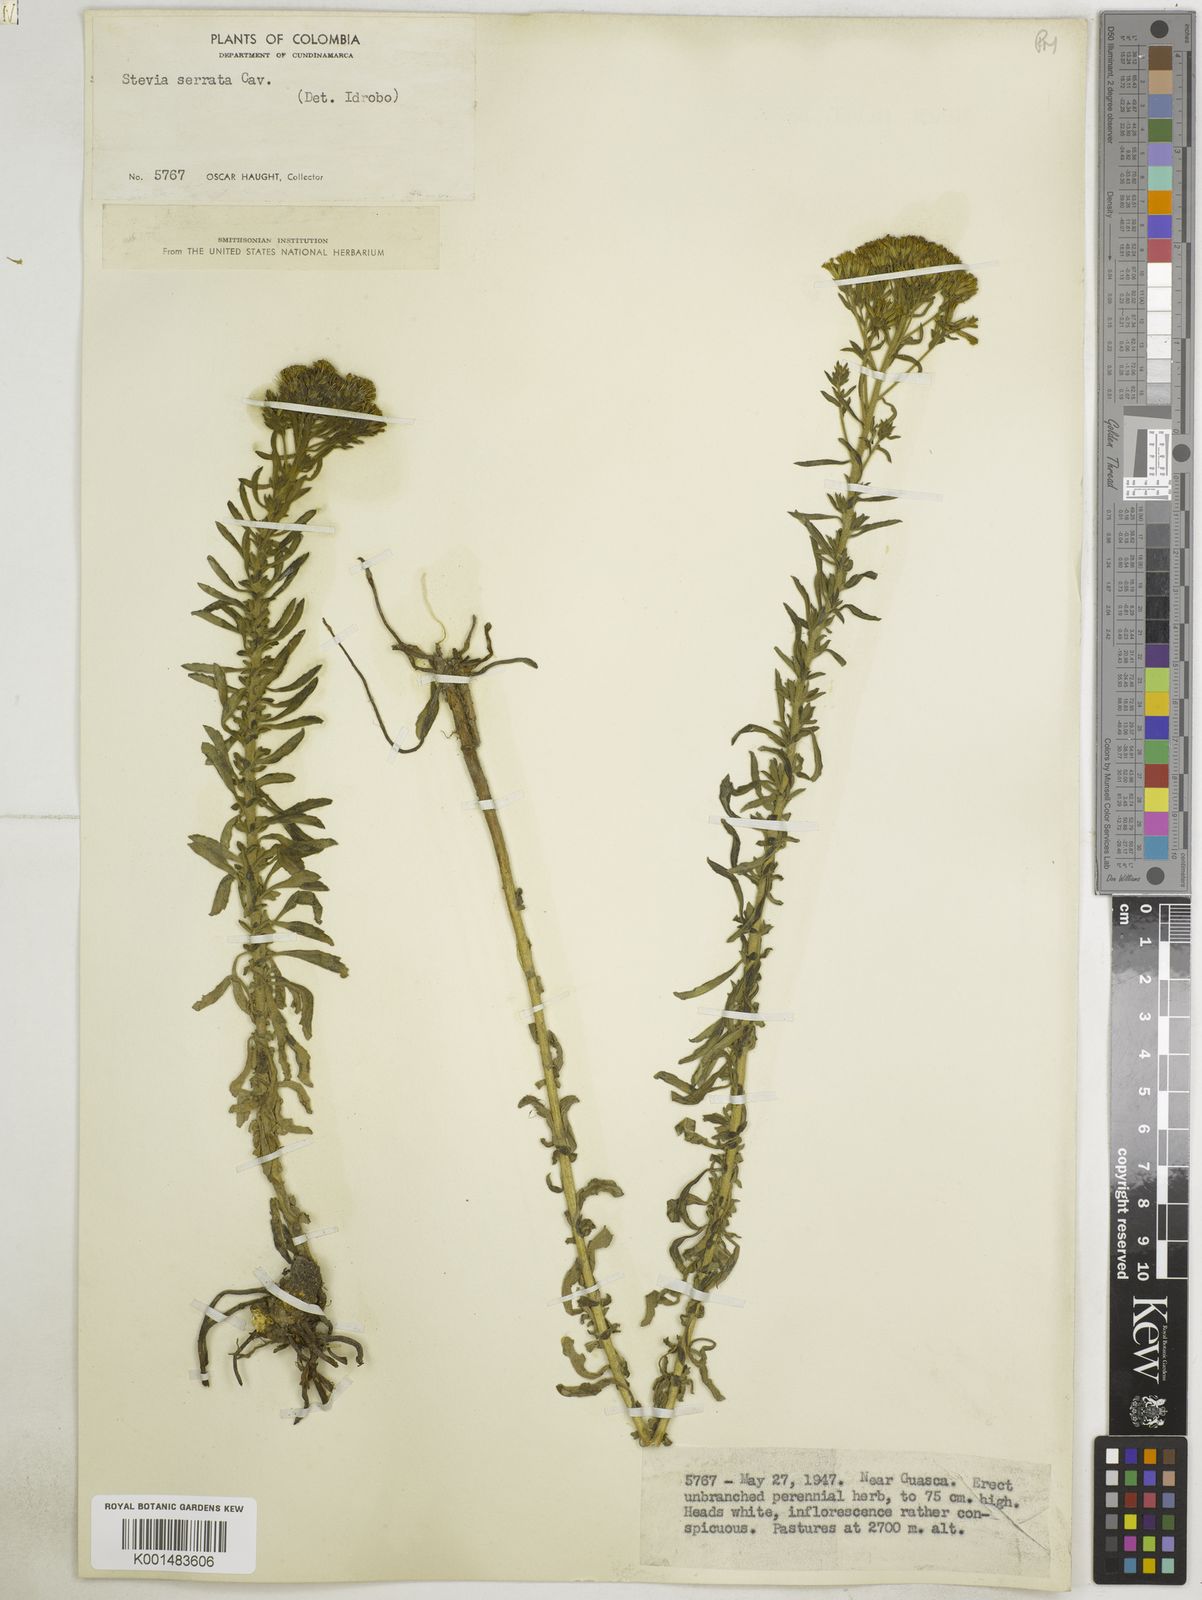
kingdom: Plantae
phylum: Tracheophyta
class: Magnoliopsida
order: Asterales
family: Asteraceae
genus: Stevia
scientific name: Stevia serrata
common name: Sawtooth candyleaf
